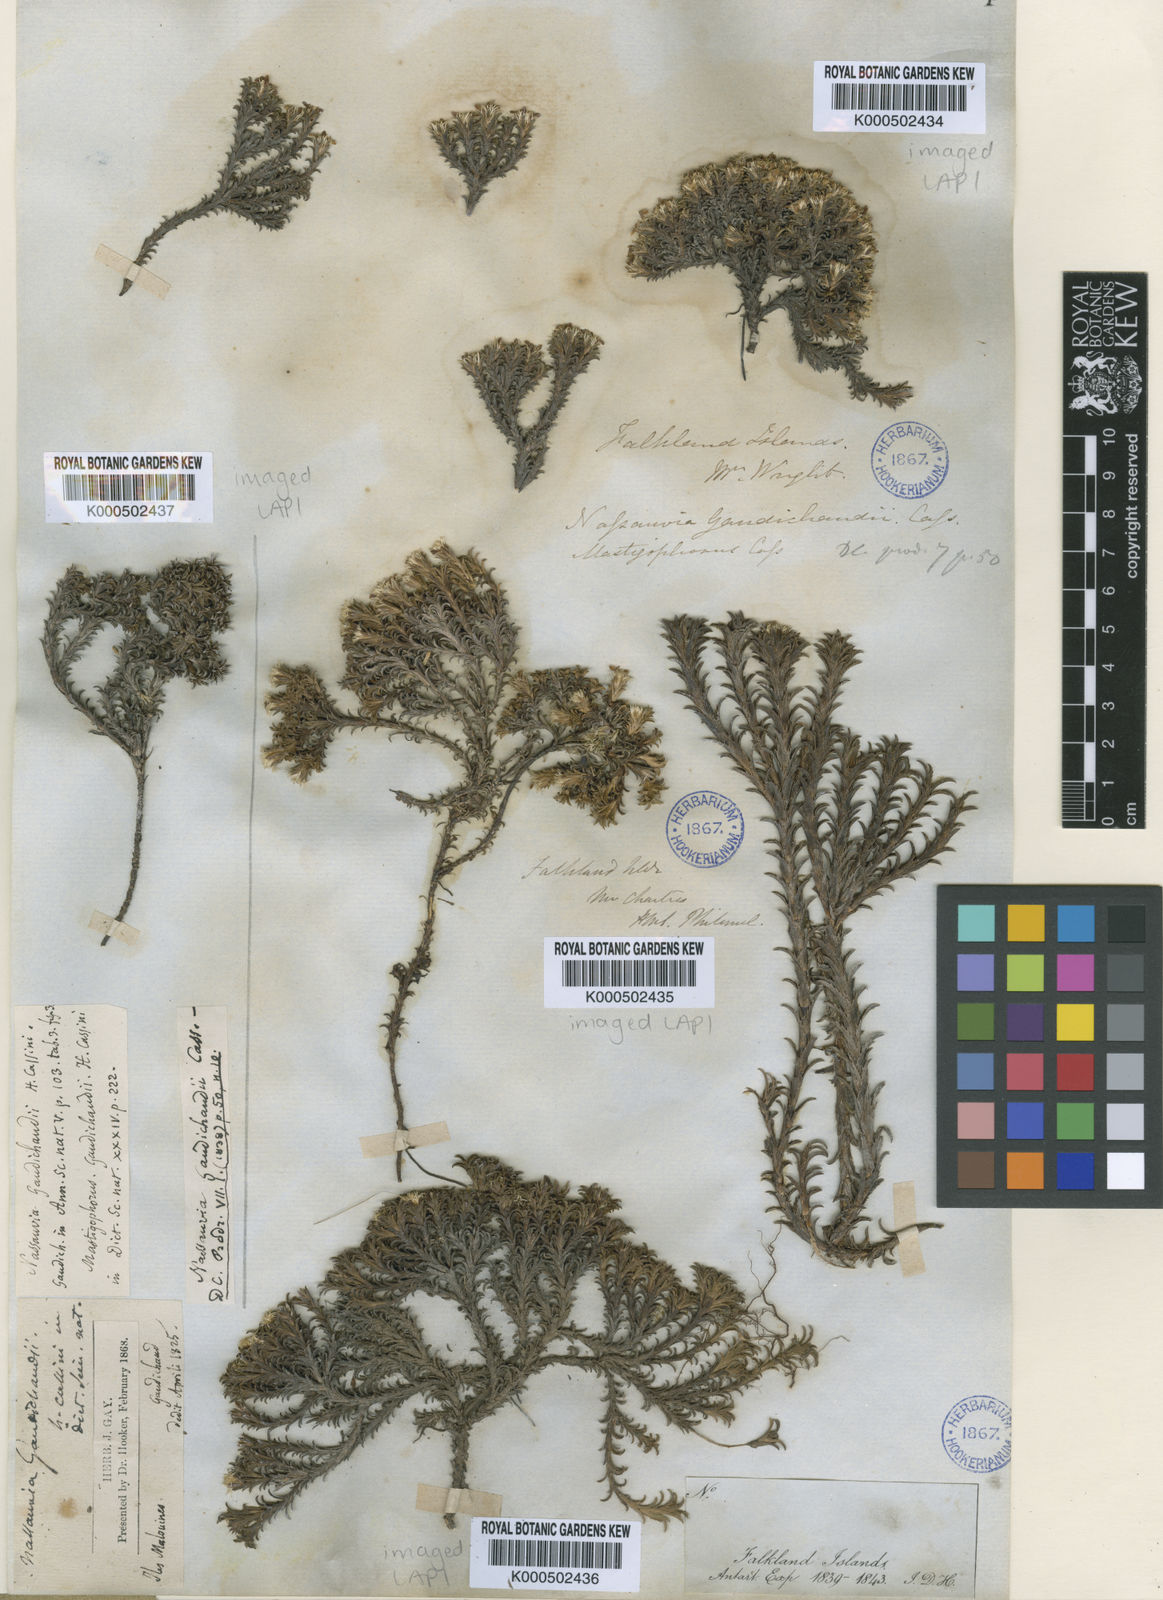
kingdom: Plantae
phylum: Tracheophyta
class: Magnoliopsida
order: Asterales
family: Asteraceae
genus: Nassauvia
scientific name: Nassauvia gaudichaudii
